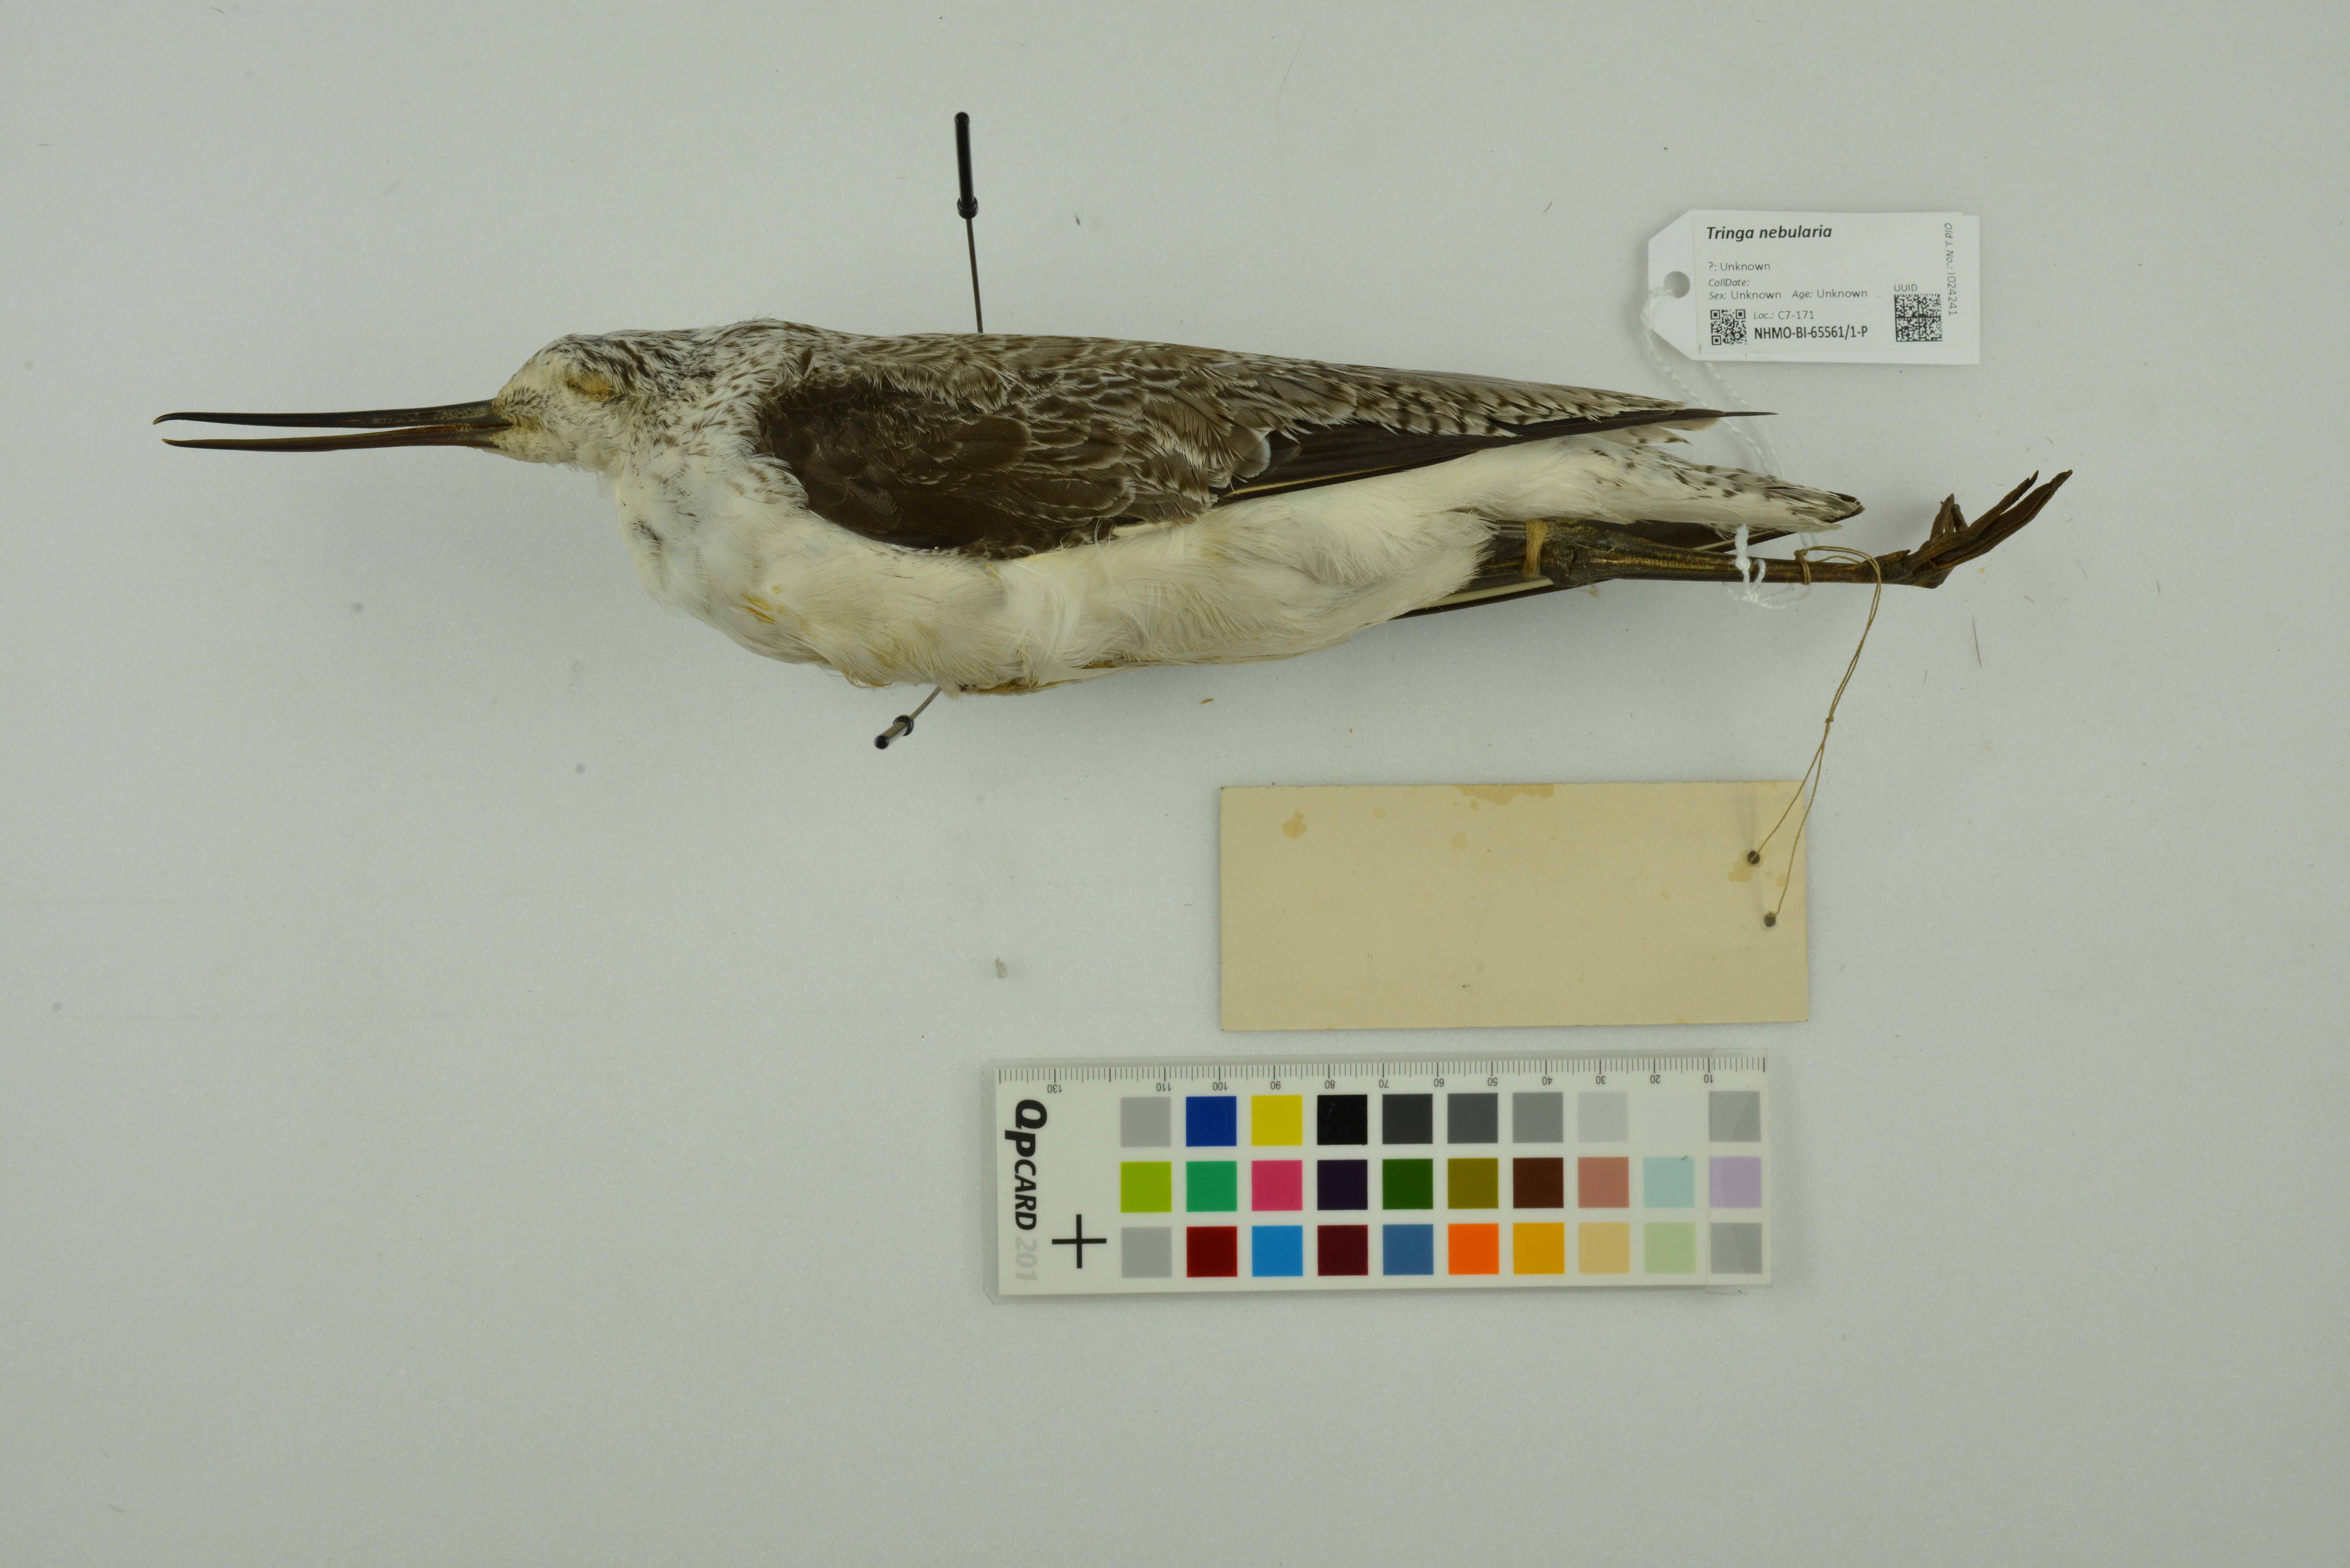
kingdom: Animalia
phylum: Chordata
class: Aves
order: Charadriiformes
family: Scolopacidae
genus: Tringa
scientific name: Tringa nebularia
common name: Common greenshank
